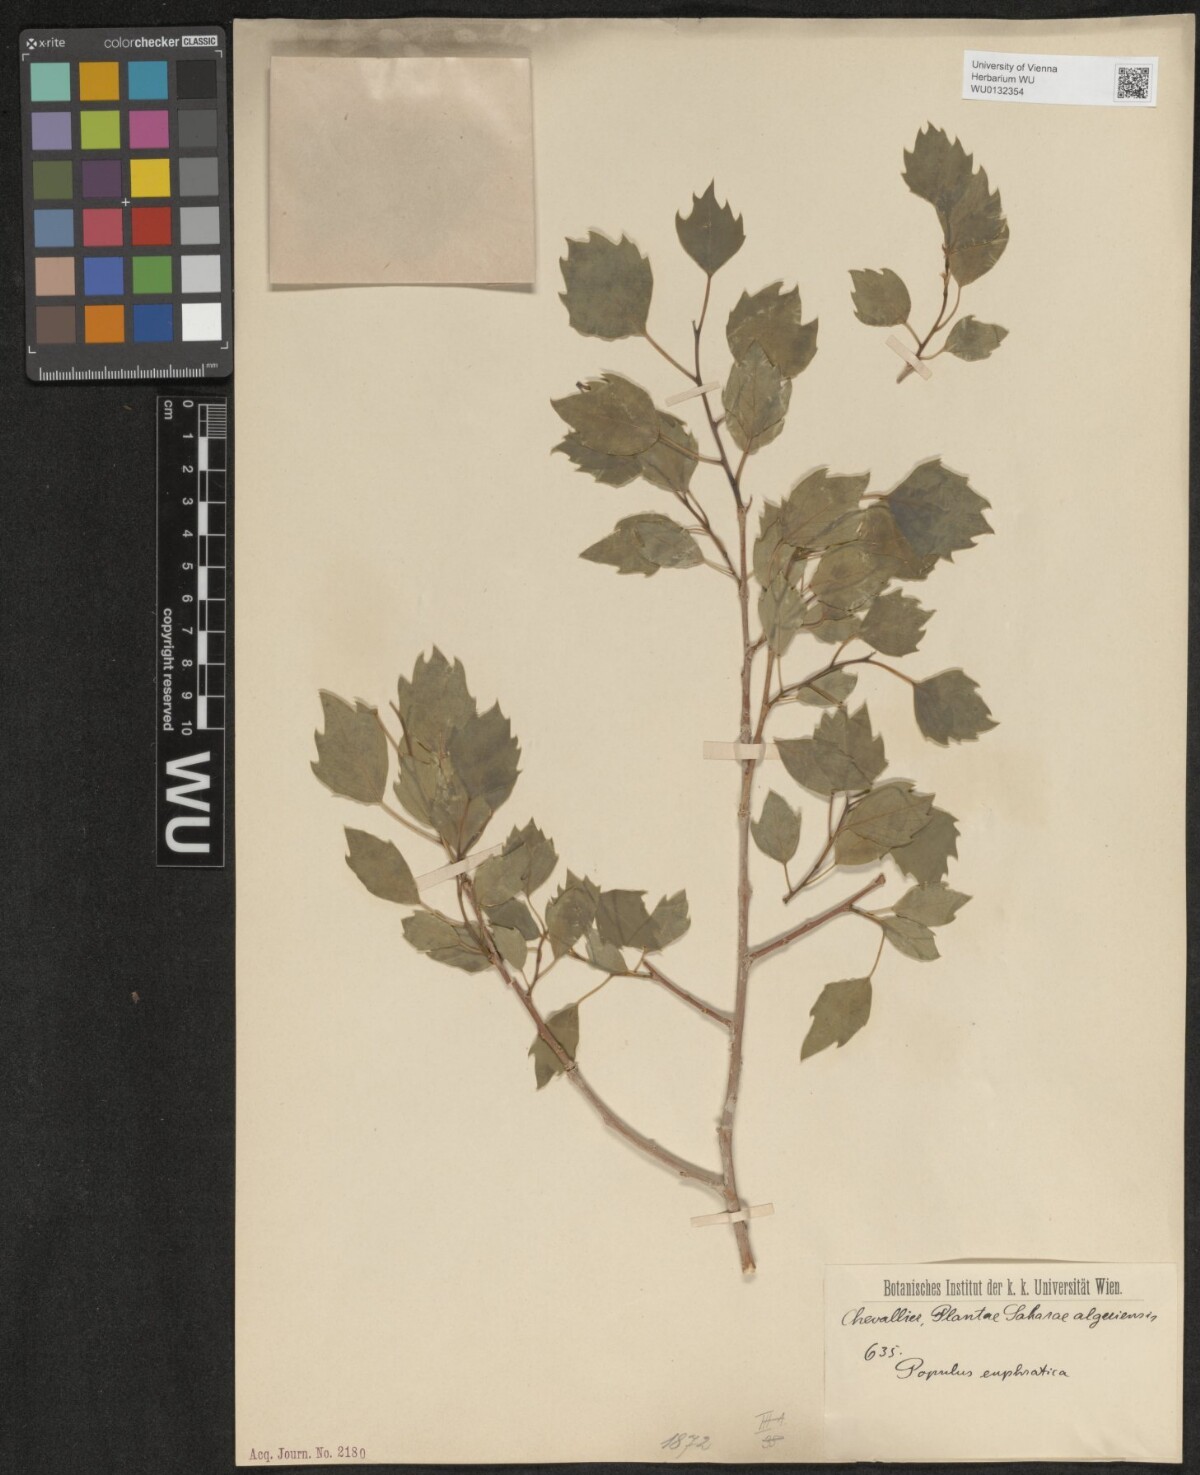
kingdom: Plantae
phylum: Tracheophyta
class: Magnoliopsida
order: Malpighiales
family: Salicaceae
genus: Populus
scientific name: Populus euphratica
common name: Euphrates poplar
